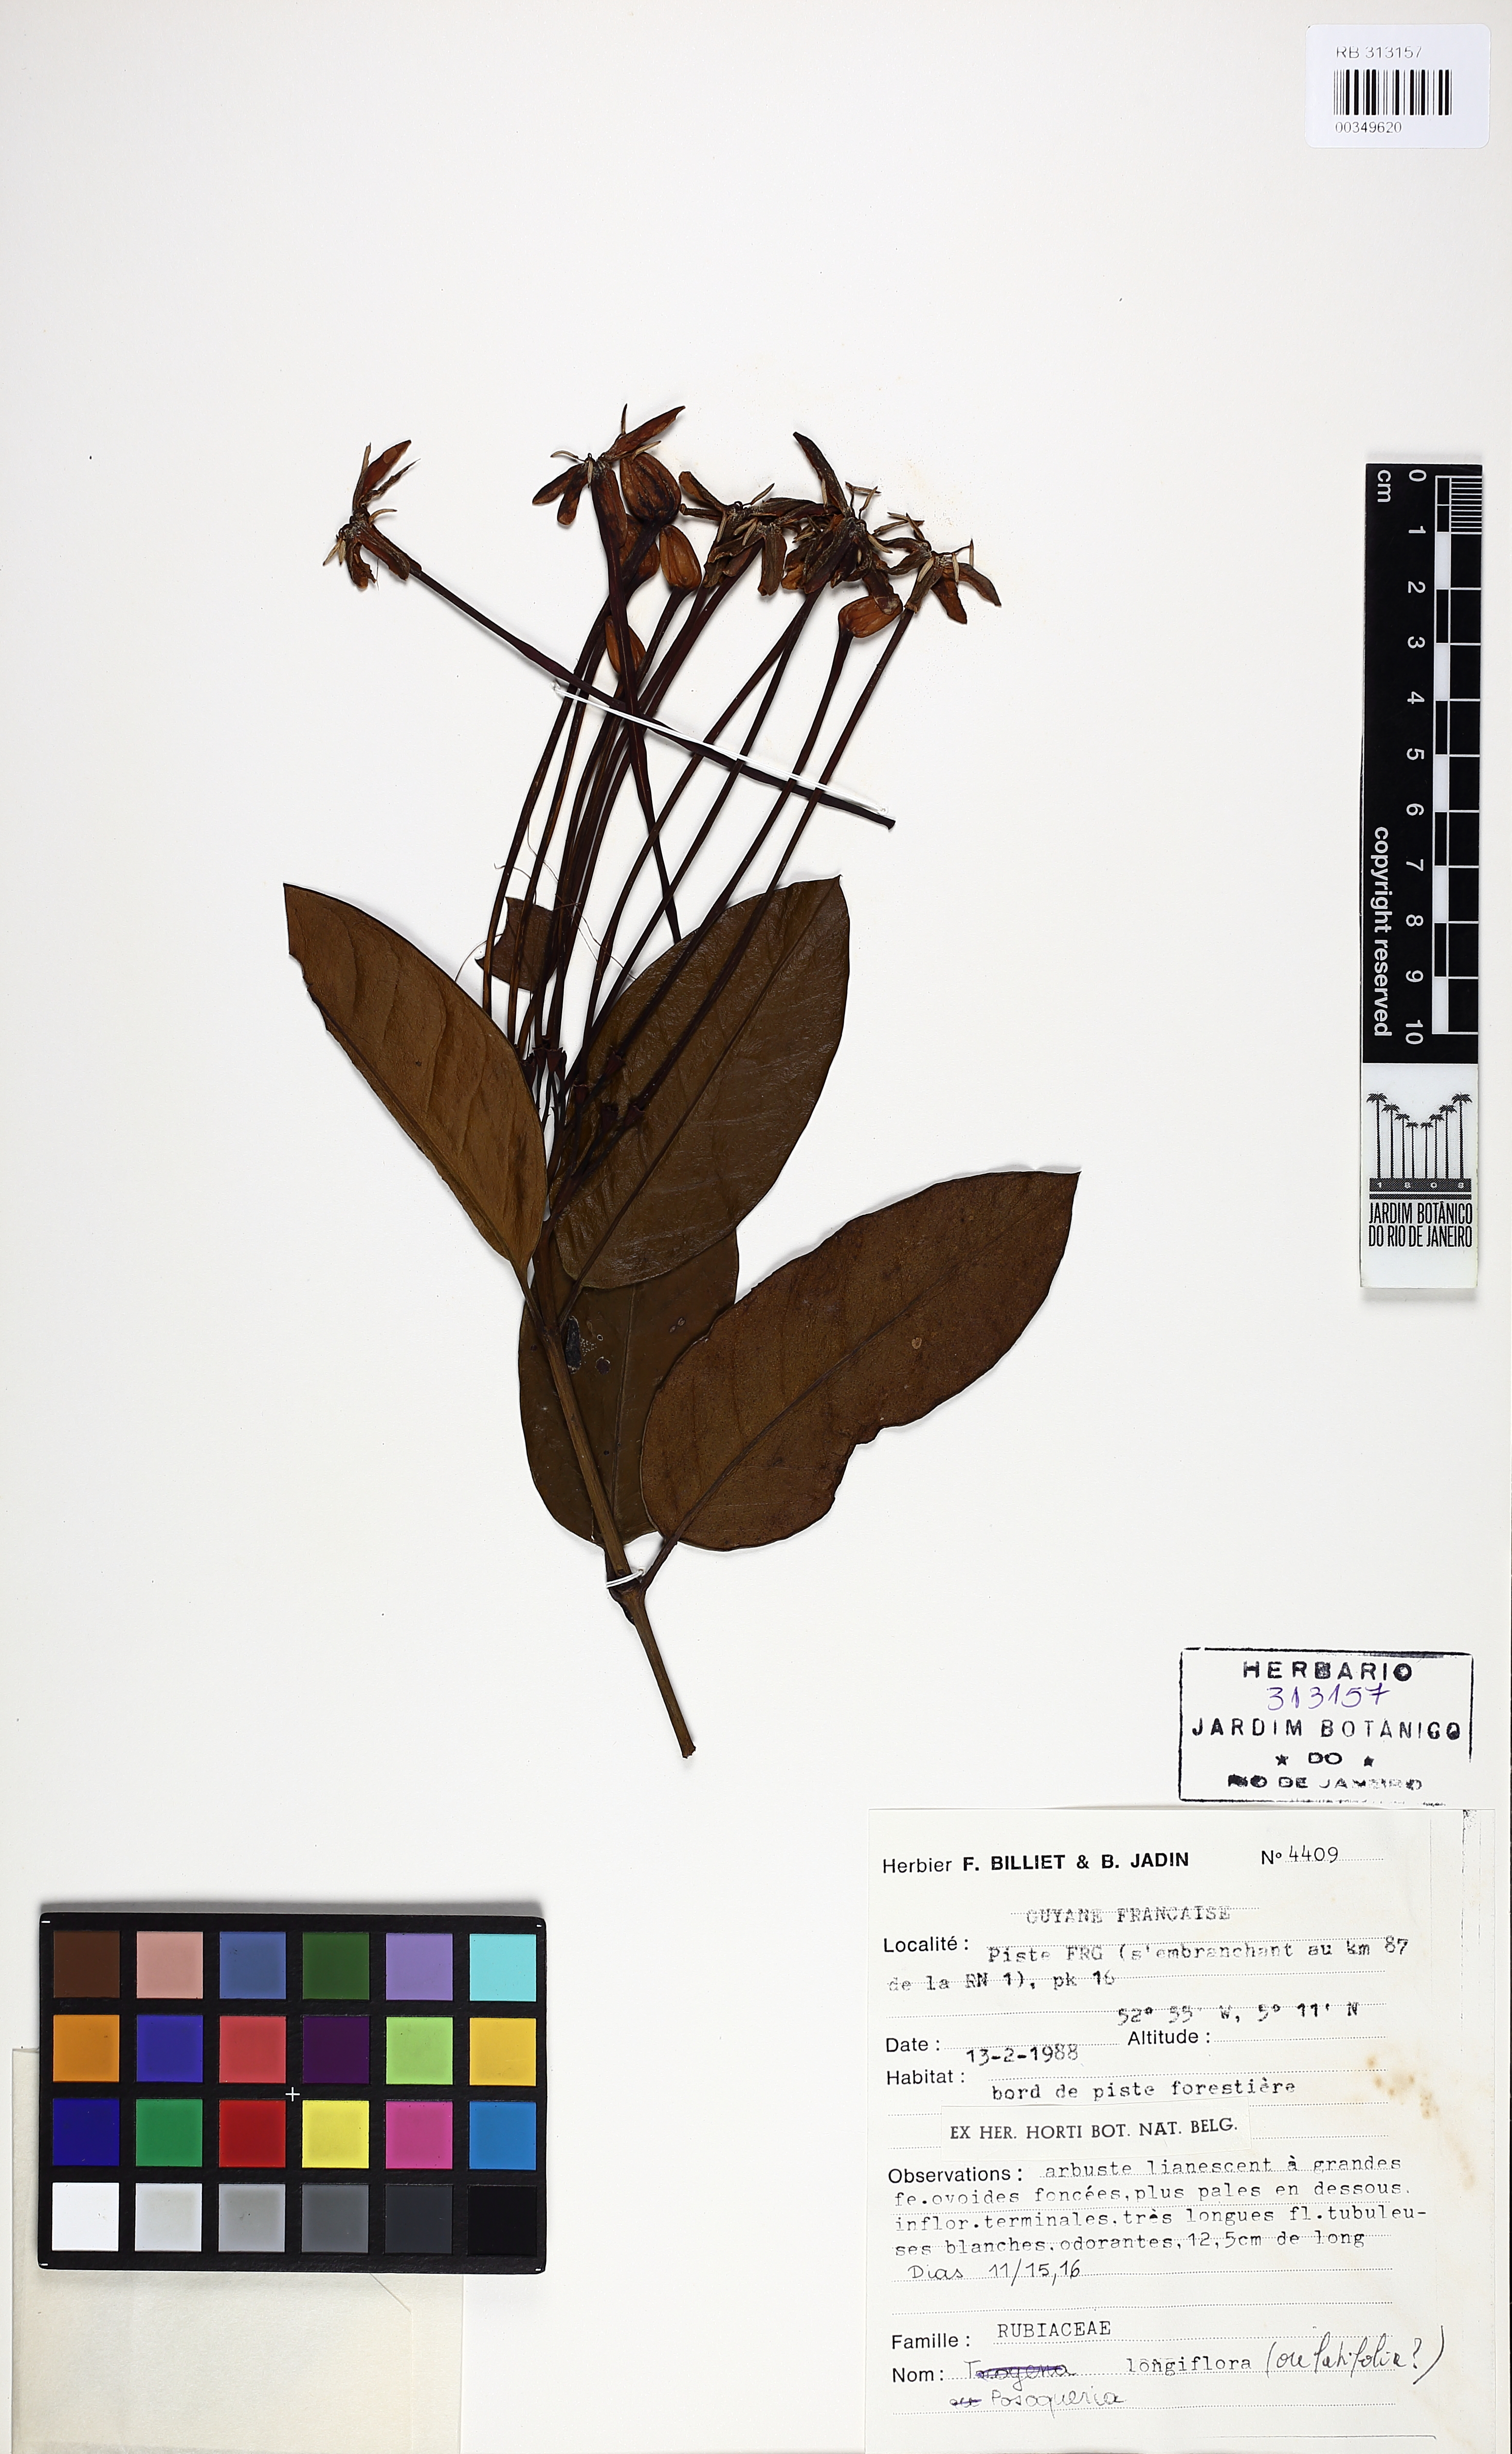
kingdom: Plantae
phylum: Tracheophyta
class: Magnoliopsida
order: Gentianales
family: Rubiaceae
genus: Posoqueria
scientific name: Posoqueria longiflora
